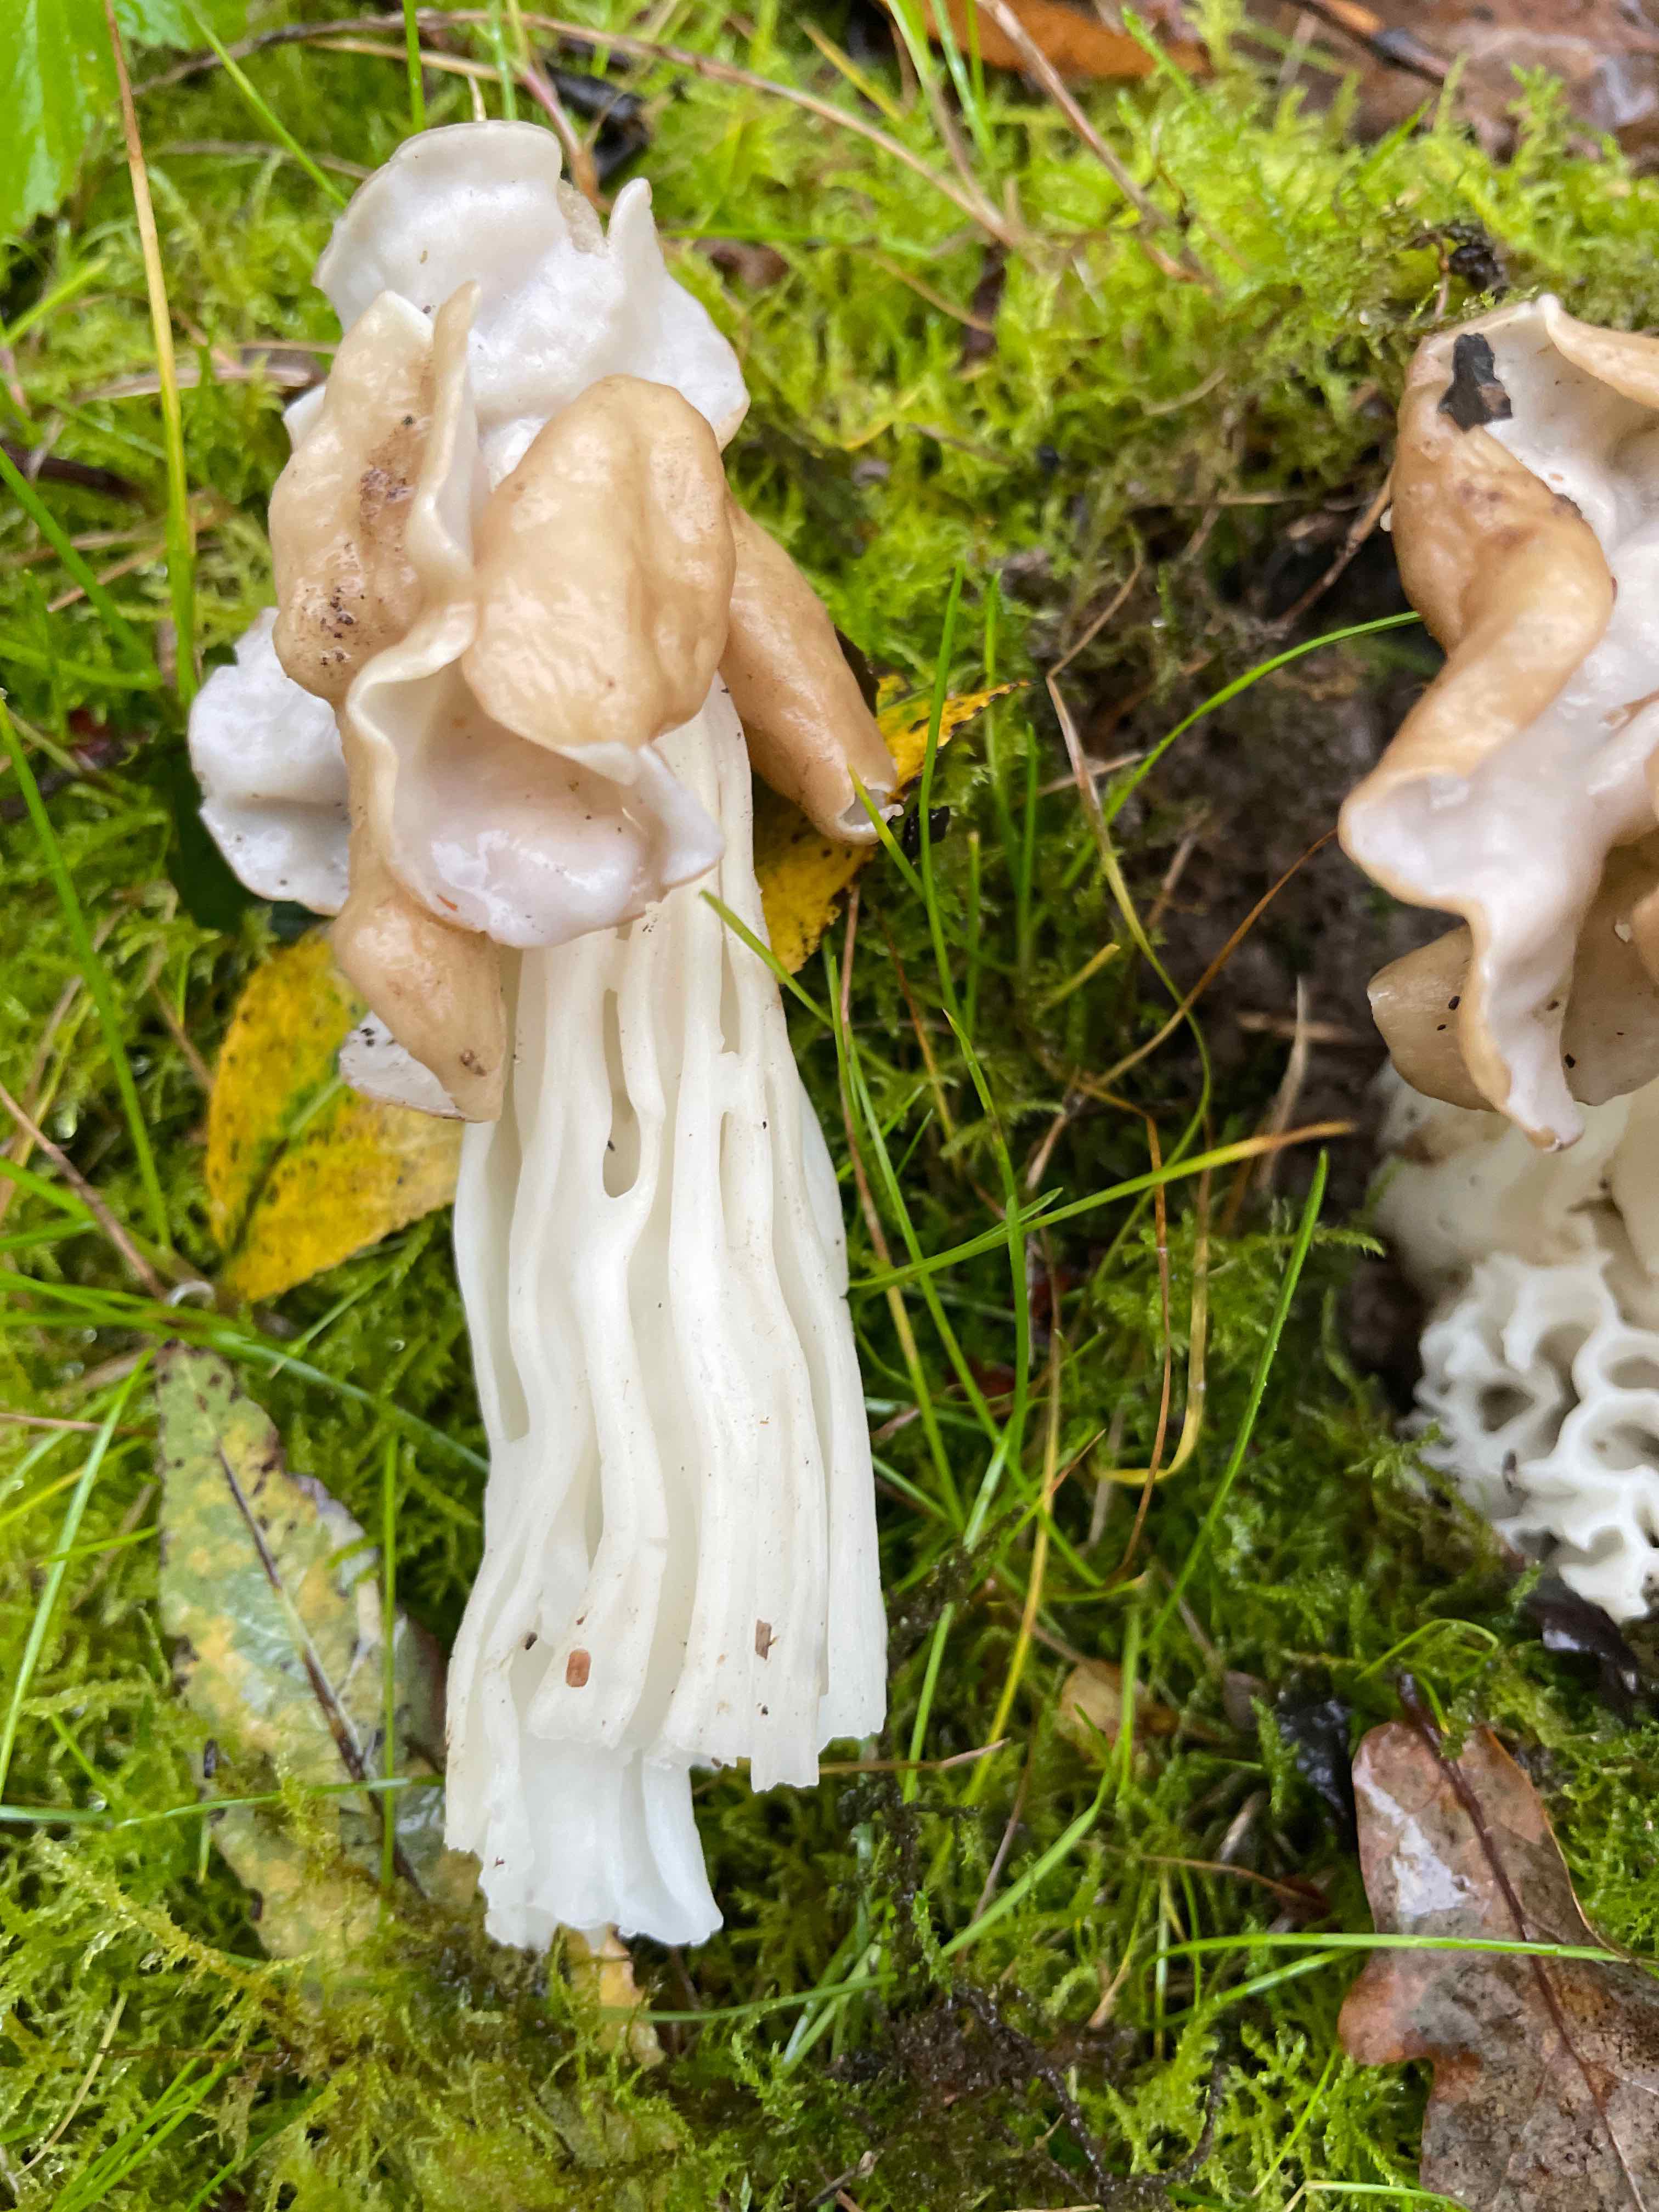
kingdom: Fungi
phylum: Ascomycota
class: Pezizomycetes
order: Pezizales
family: Helvellaceae
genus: Helvella
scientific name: Helvella crispa
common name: kruset foldhat
